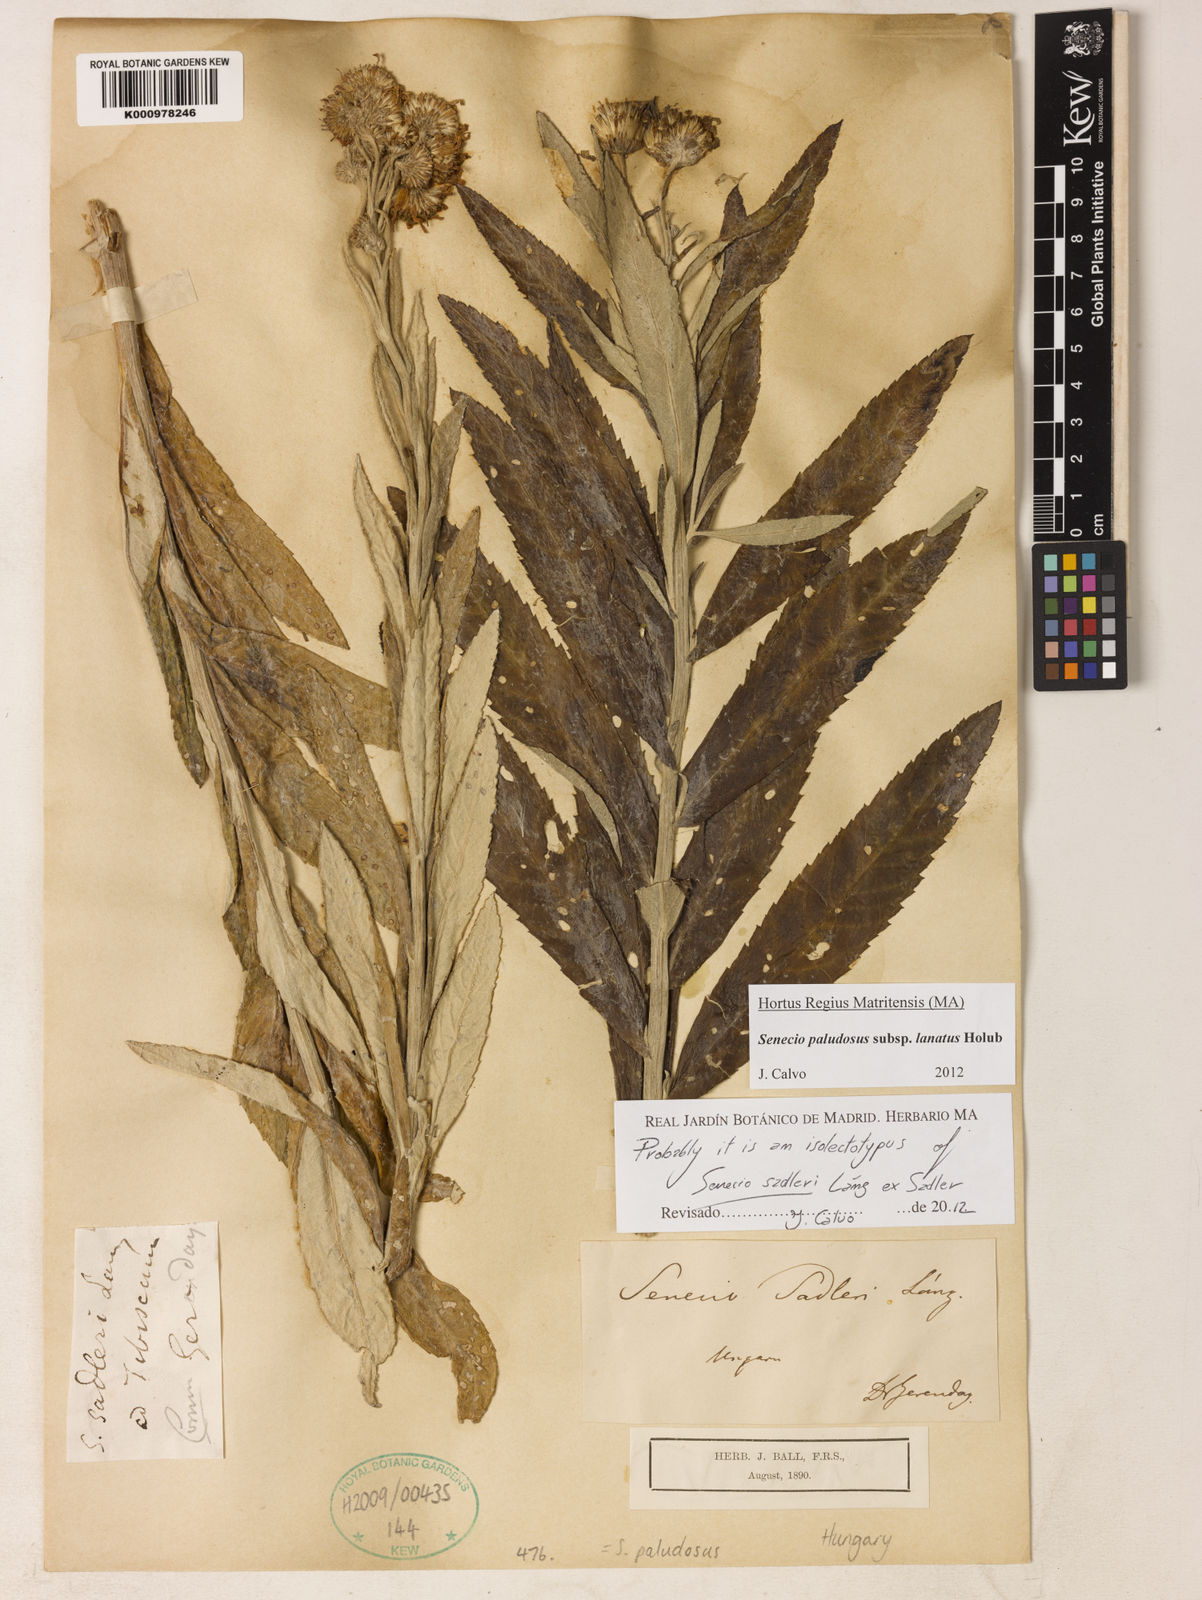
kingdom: Plantae
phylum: Tracheophyta
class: Magnoliopsida
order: Asterales
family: Asteraceae
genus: Jacobaea
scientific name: Jacobaea paludosa
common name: Fen ragwort
